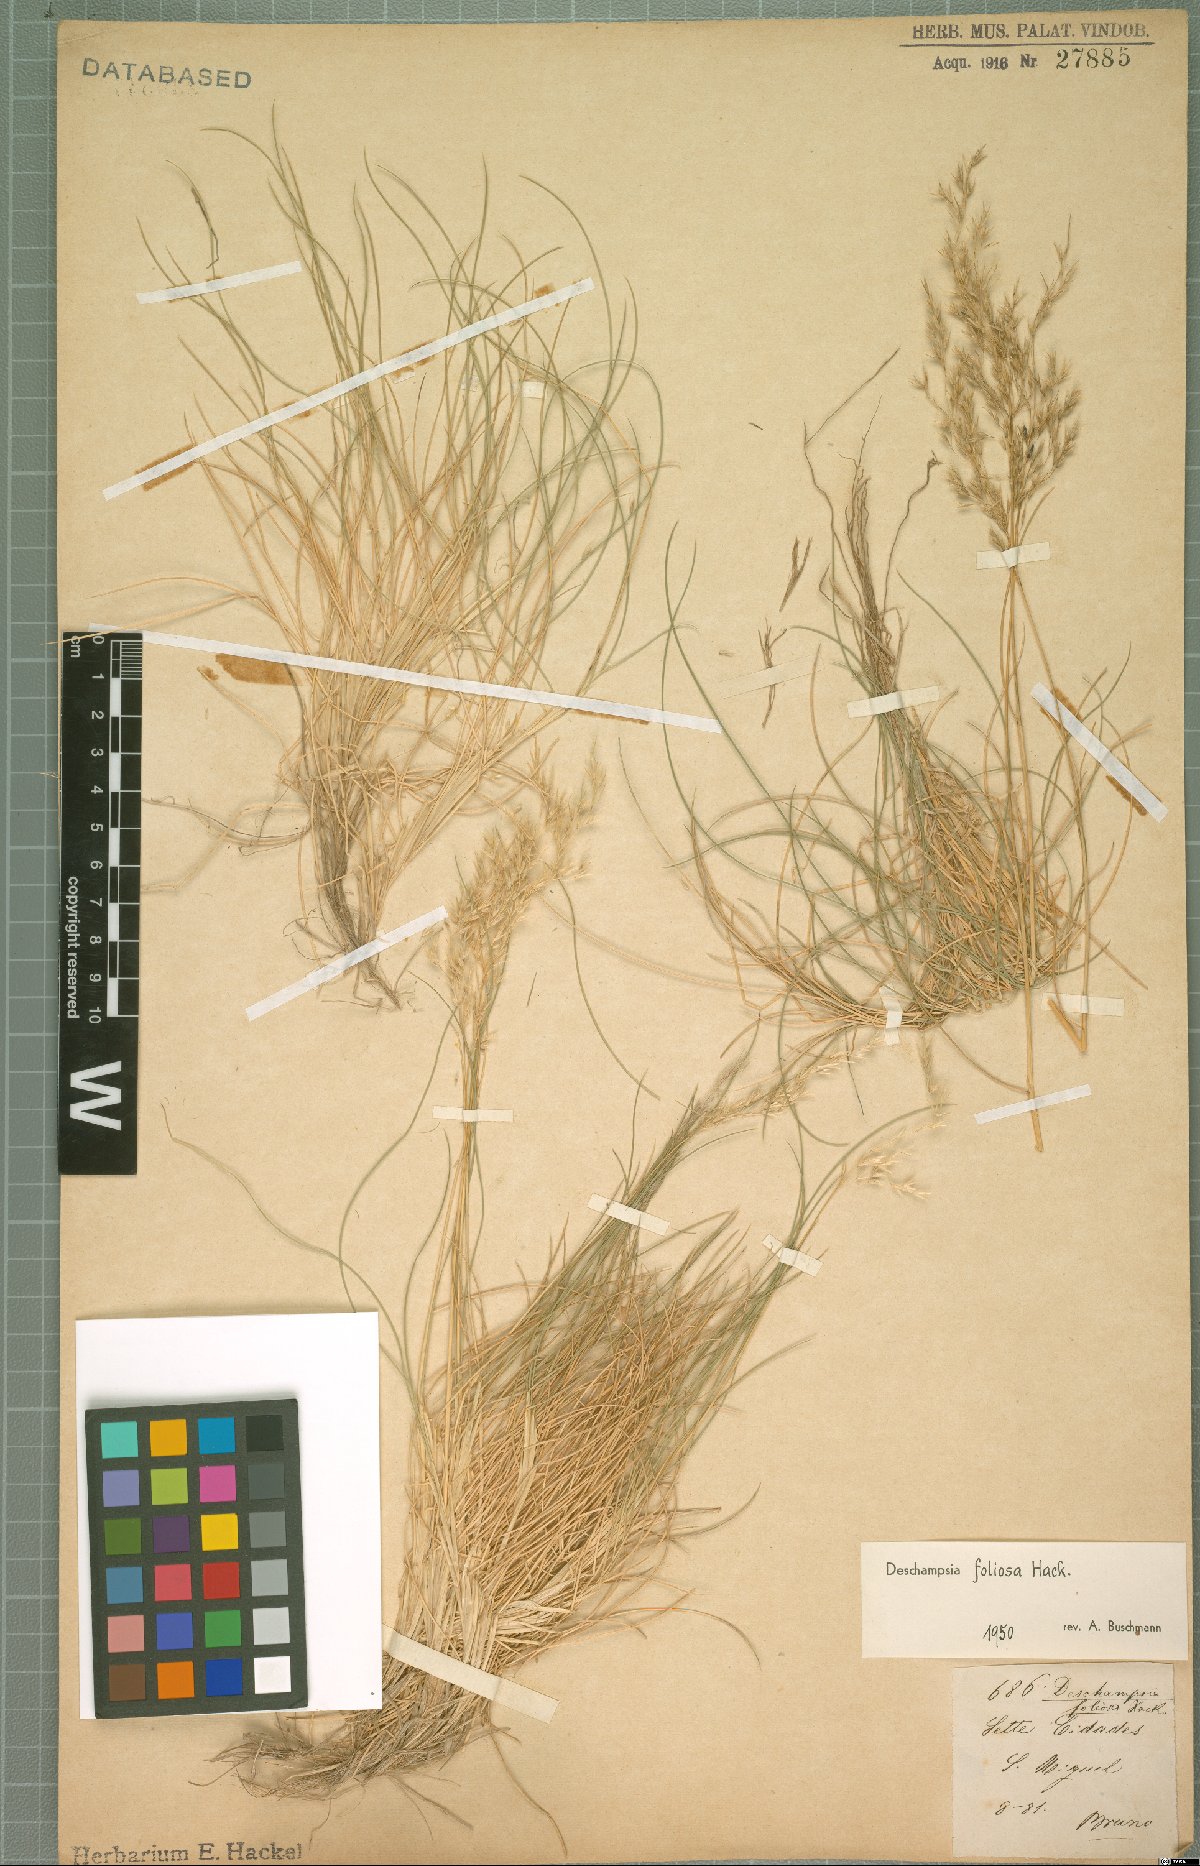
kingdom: Plantae
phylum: Tracheophyta
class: Liliopsida
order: Poales
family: Poaceae
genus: Avenella
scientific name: Avenella foliosa
